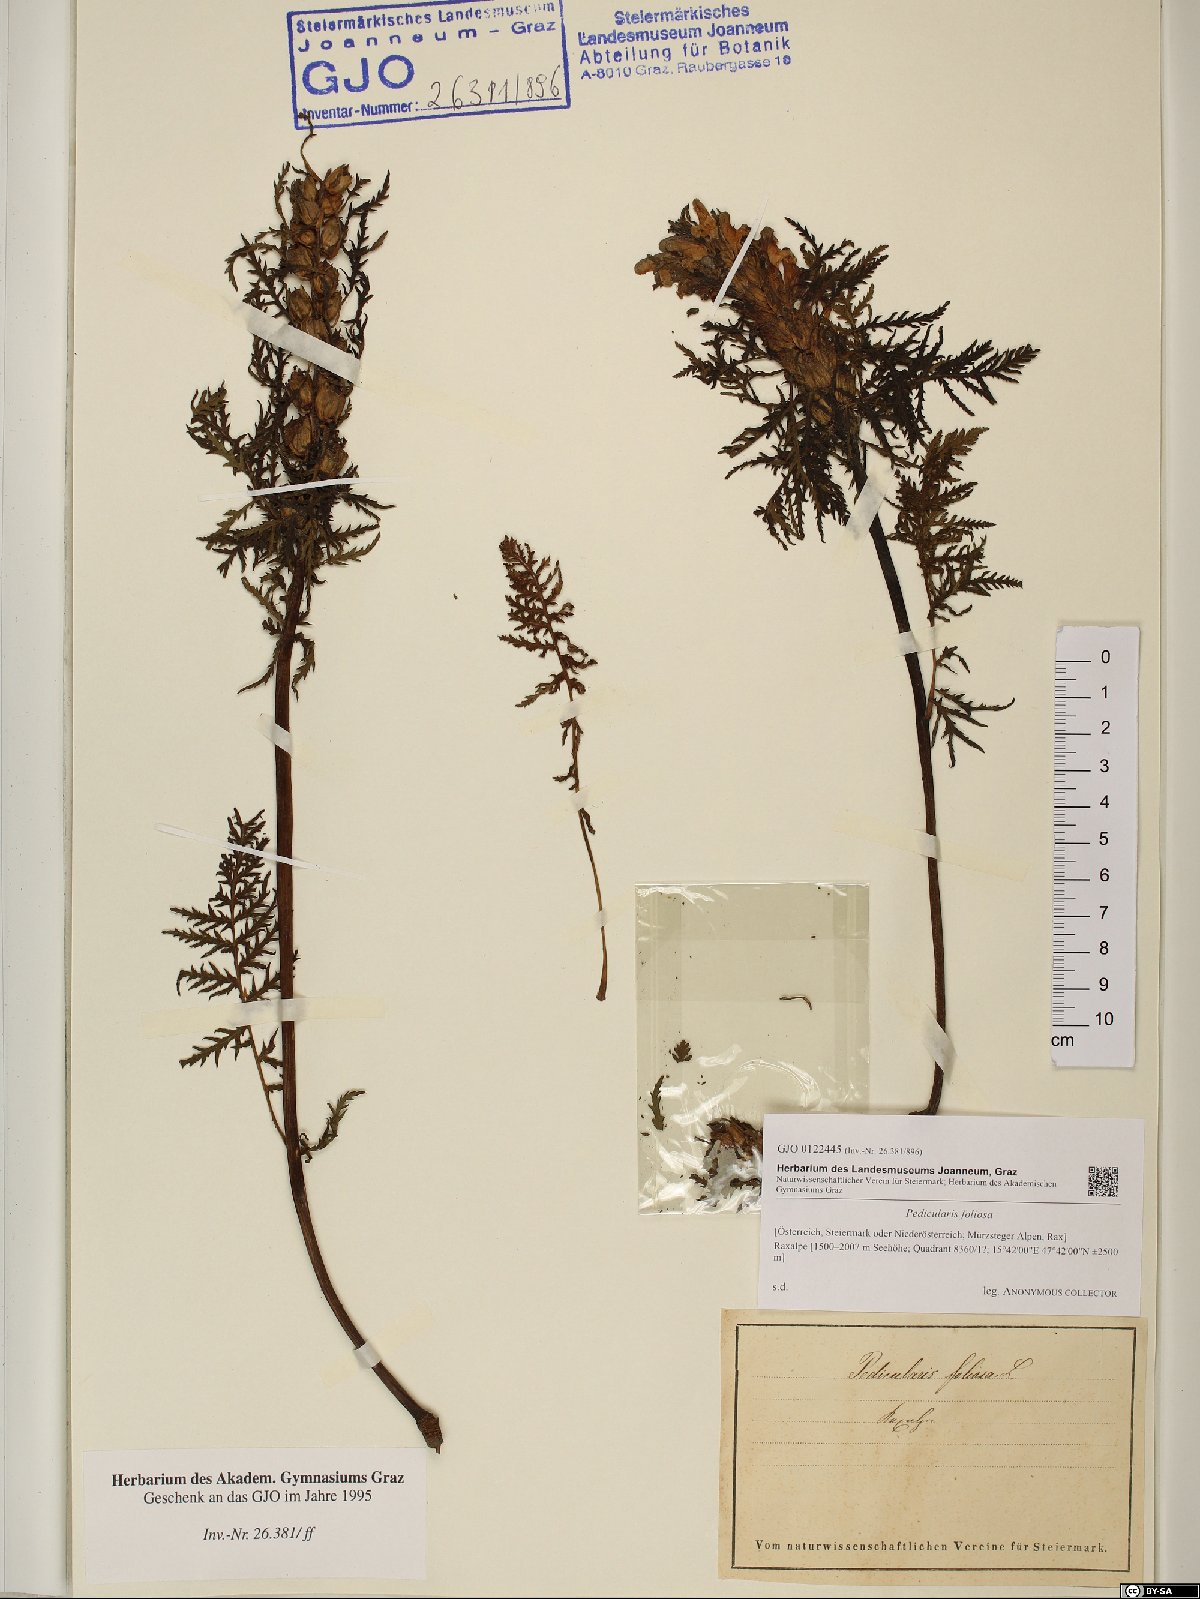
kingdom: Plantae
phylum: Tracheophyta
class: Magnoliopsida
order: Lamiales
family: Orobanchaceae
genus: Pedicularis
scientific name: Pedicularis foliosa
